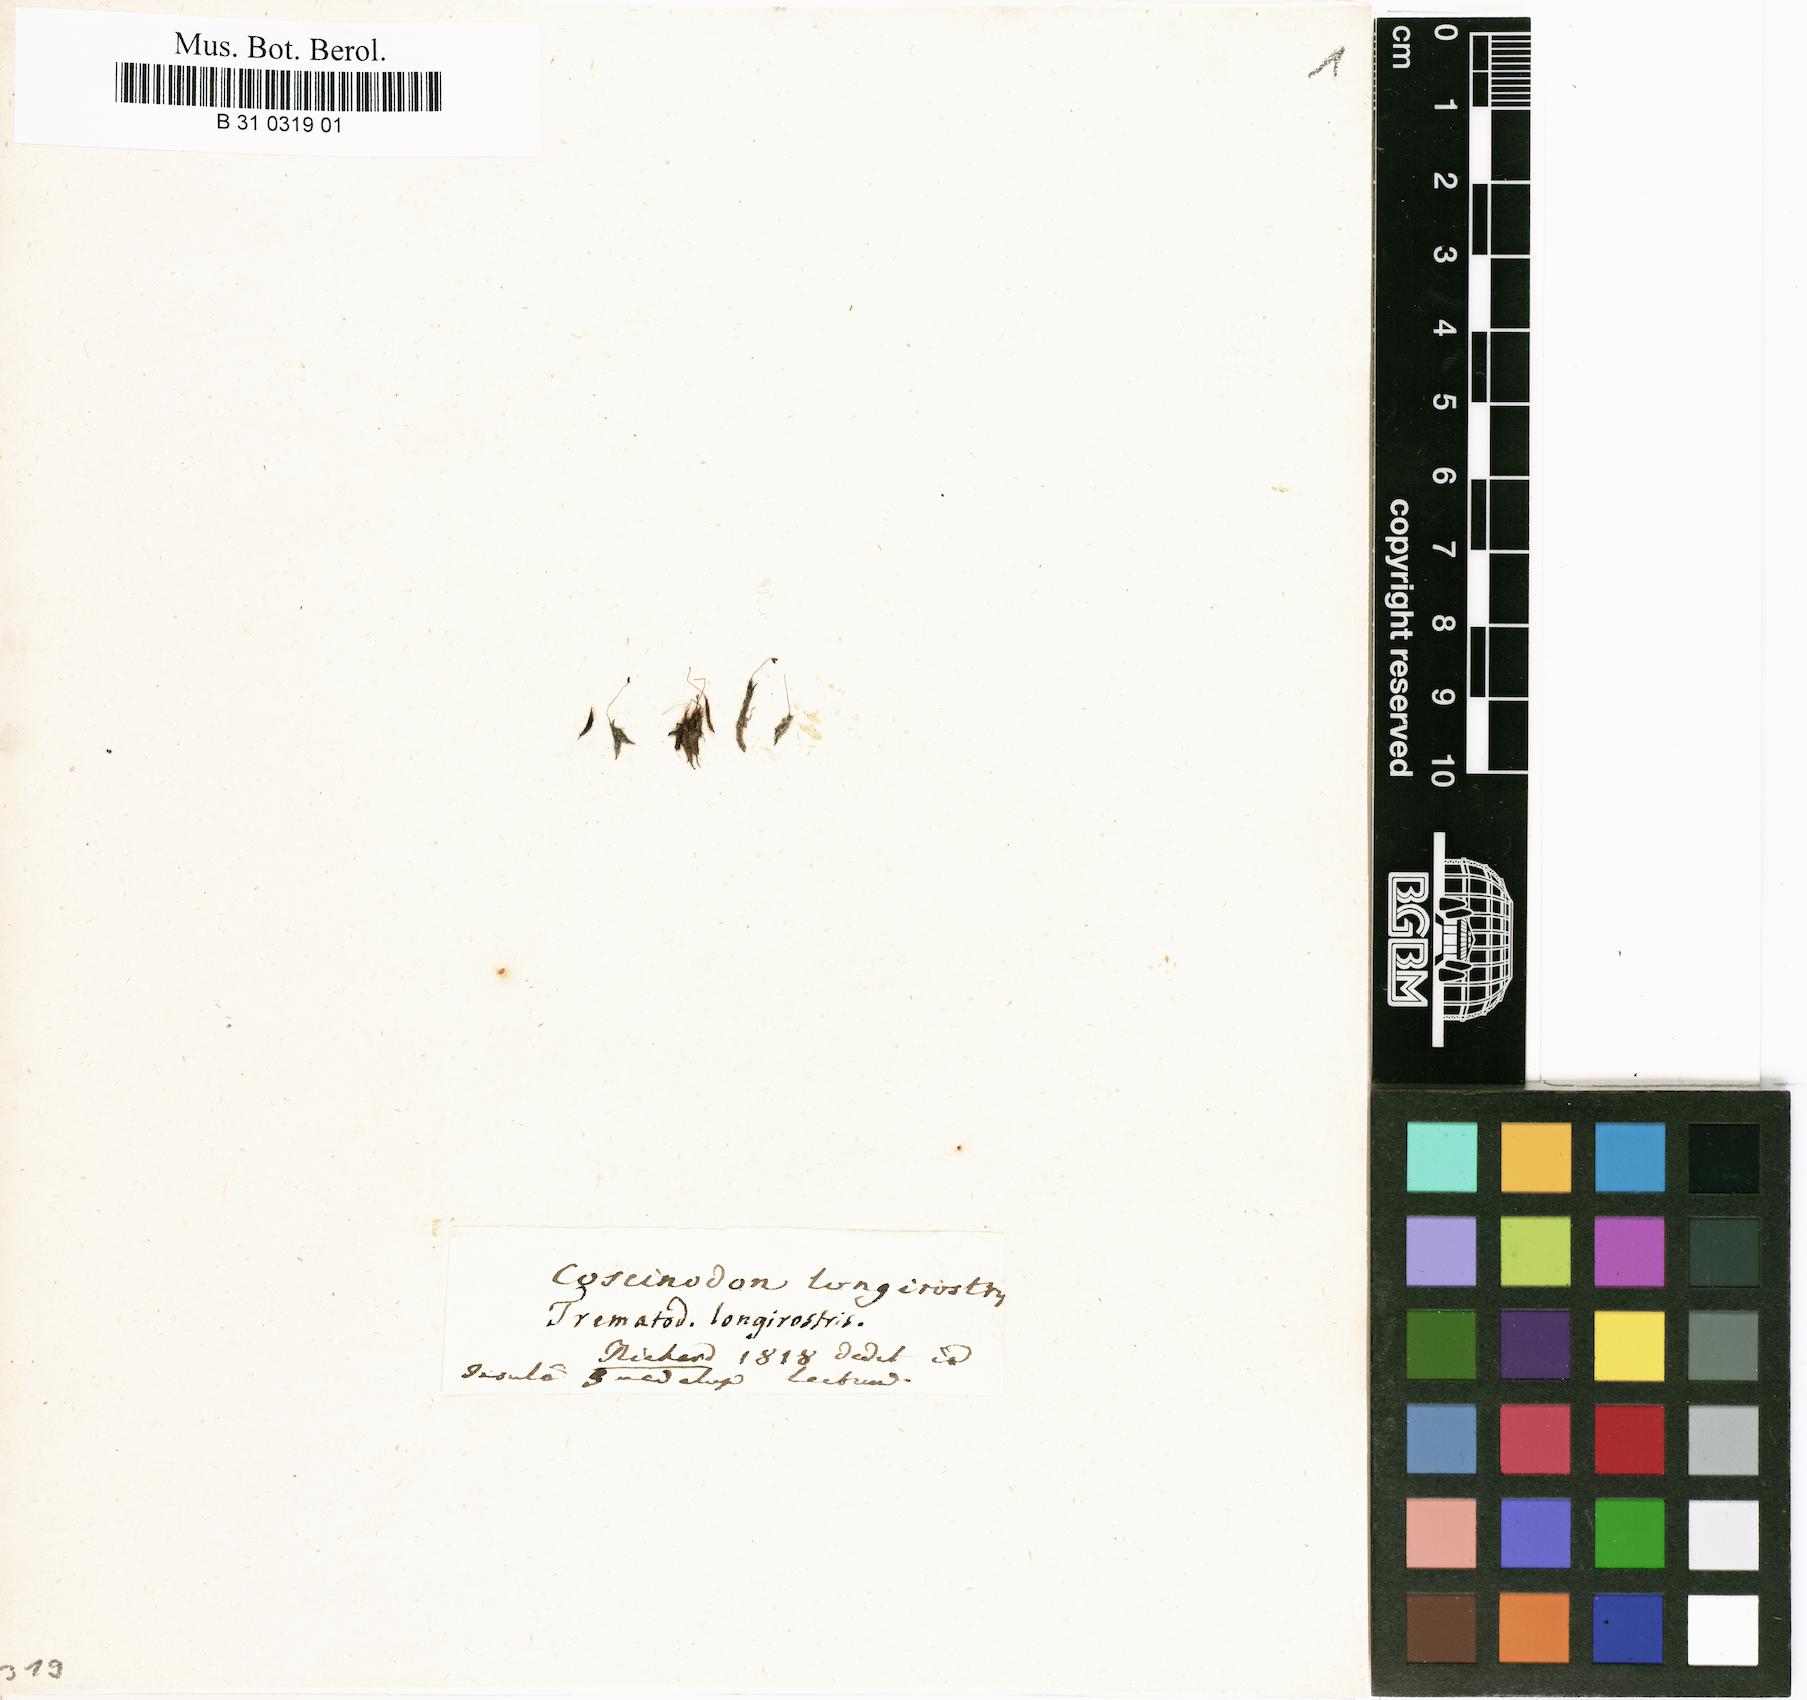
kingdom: Plantae
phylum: Bryophyta
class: Bryopsida
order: Dicranales
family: Dicranellaceae
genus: Dicranella
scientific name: Dicranella longirostris
